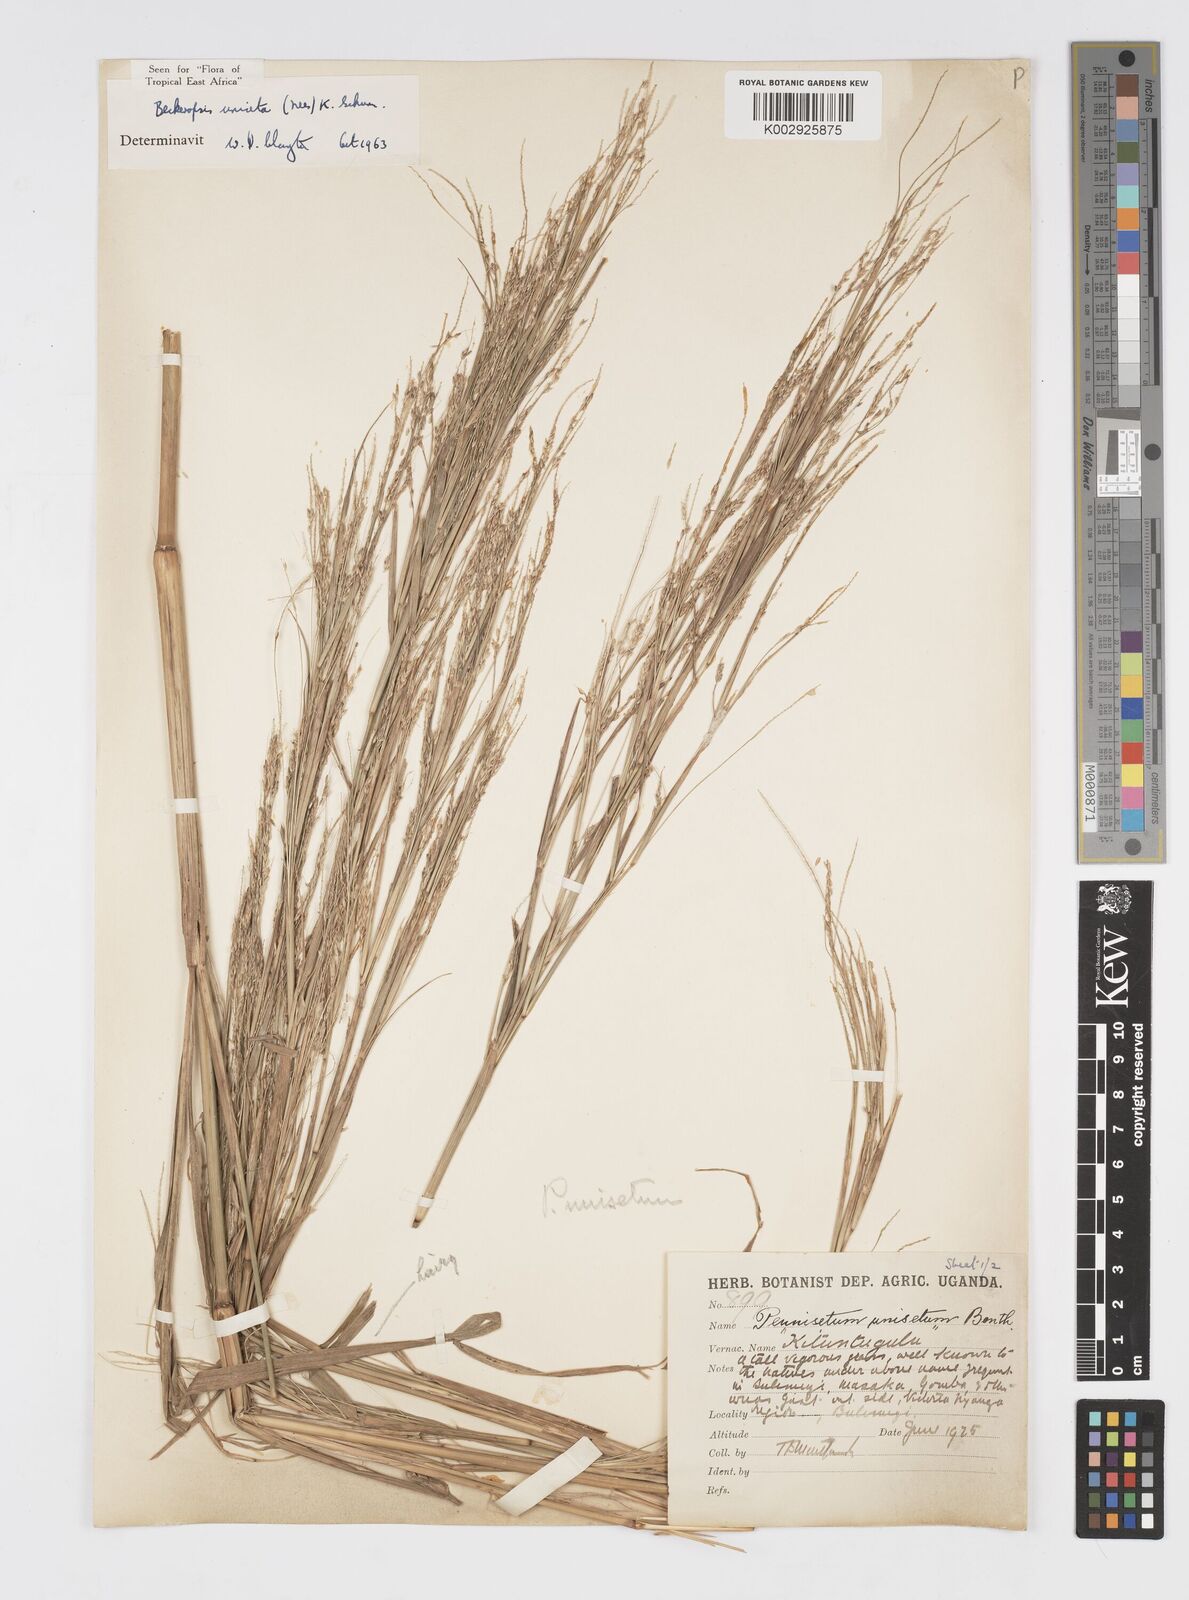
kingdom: Plantae
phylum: Tracheophyta
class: Liliopsida
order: Poales
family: Poaceae
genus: Cenchrus
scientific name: Cenchrus unisetus
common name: Natal grass
